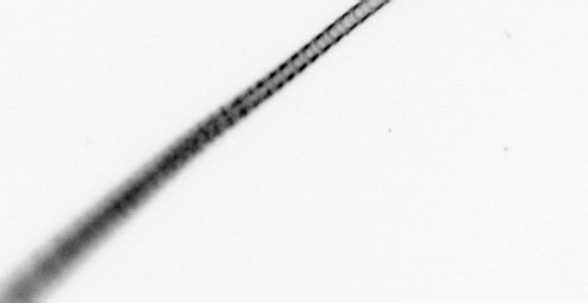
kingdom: Chromista
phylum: Ochrophyta
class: Bacillariophyceae
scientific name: Bacillariophyceae
